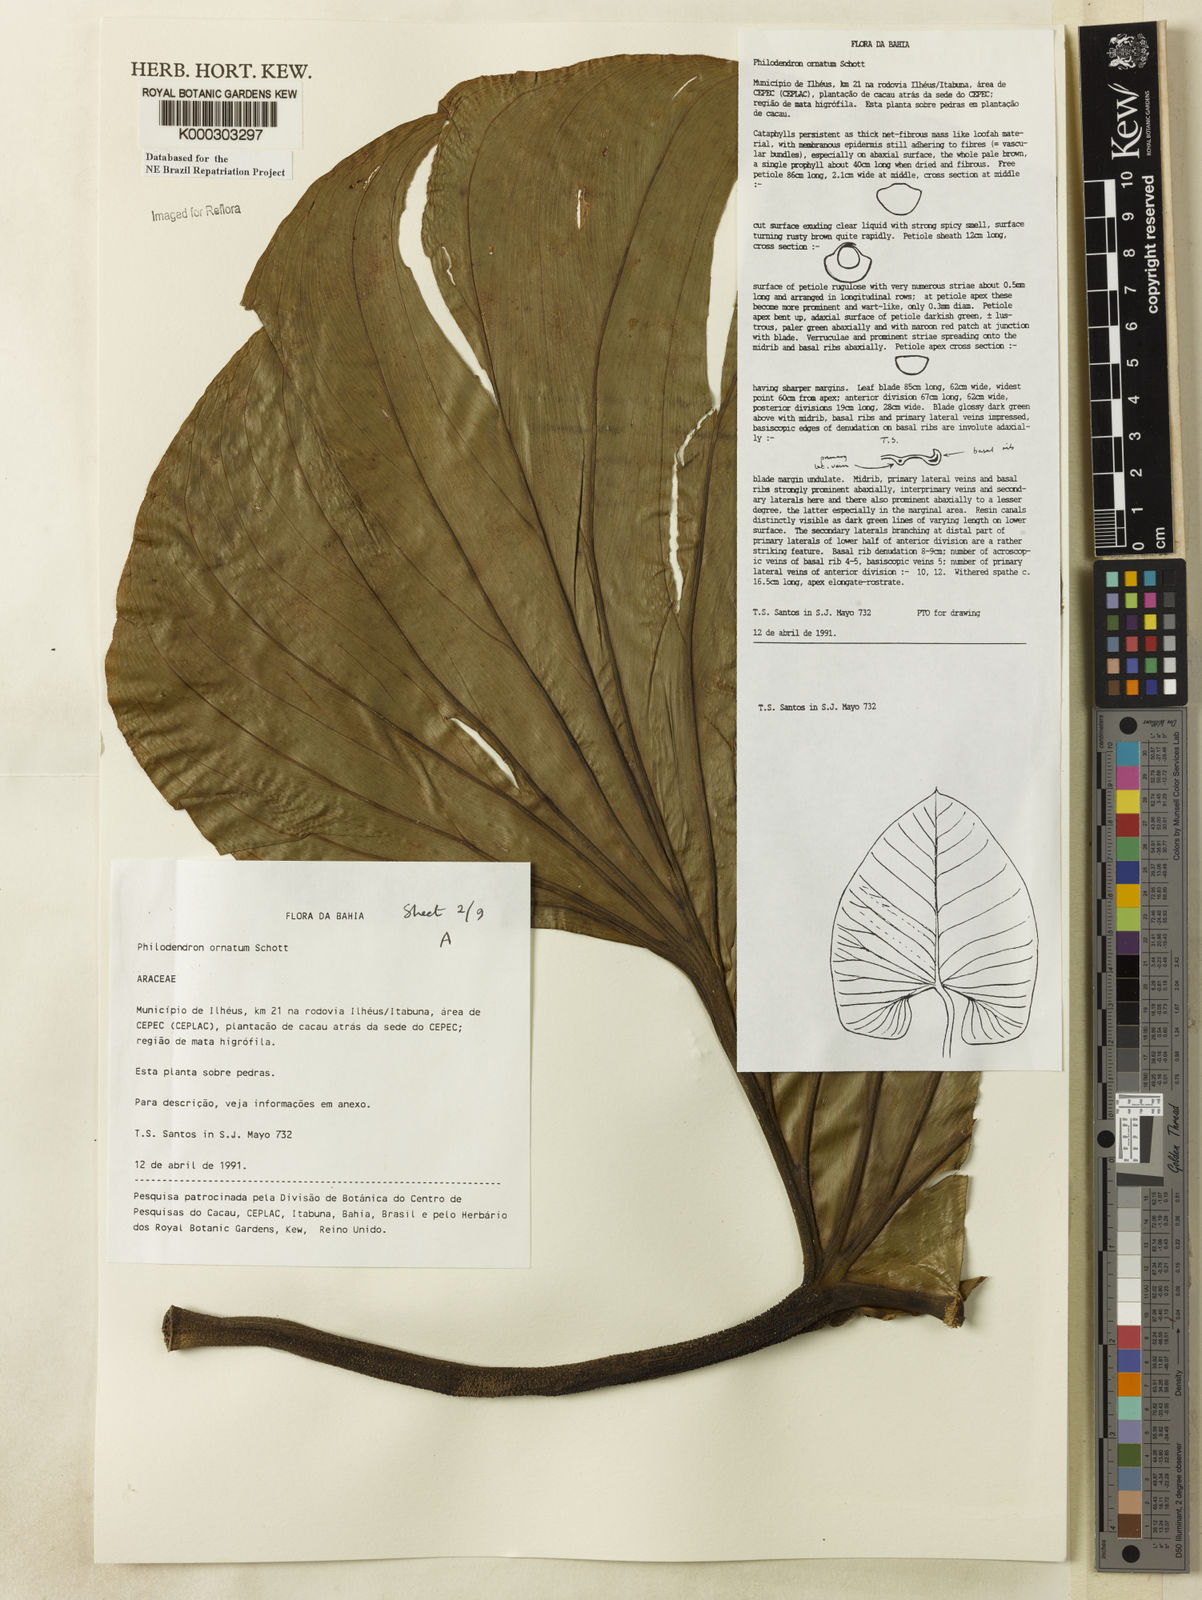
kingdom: Plantae
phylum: Tracheophyta
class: Liliopsida
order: Alismatales
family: Araceae
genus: Philodendron
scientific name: Philodendron ornatum
